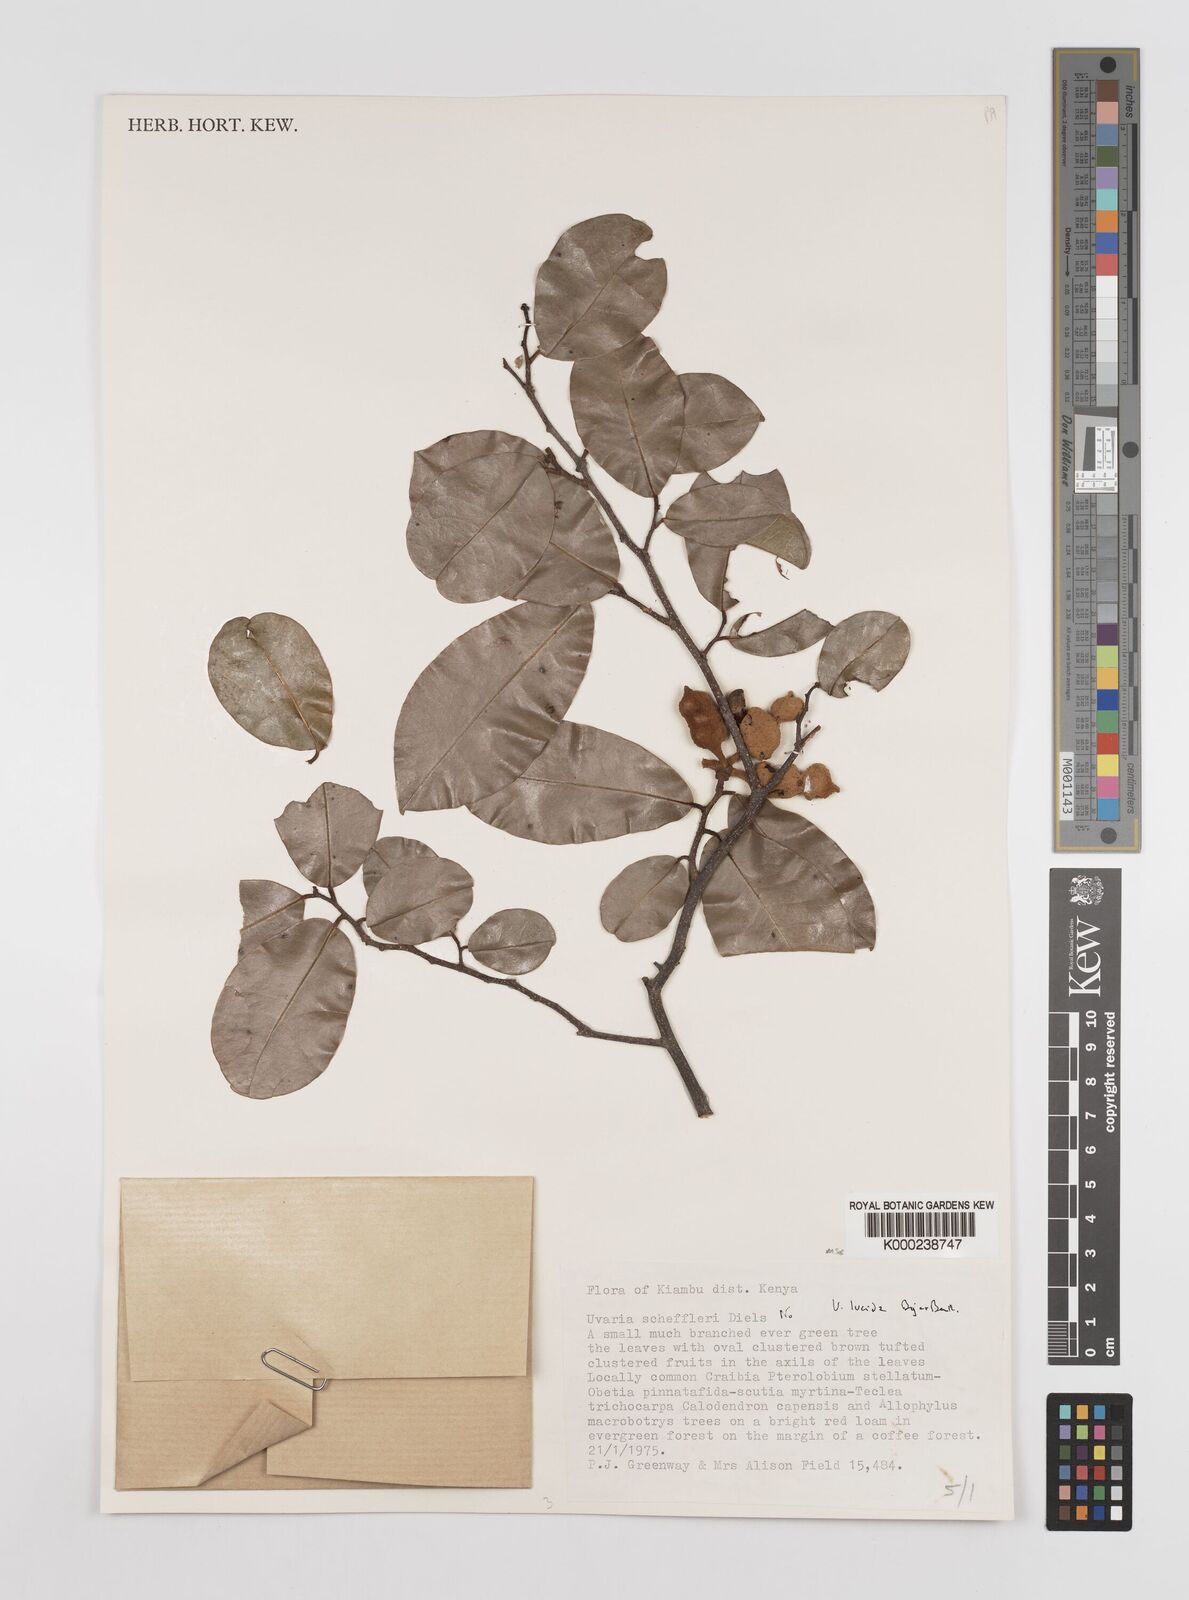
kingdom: Plantae
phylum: Tracheophyta
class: Magnoliopsida
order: Magnoliales
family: Annonaceae
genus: Uvaria
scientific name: Uvaria lucida
